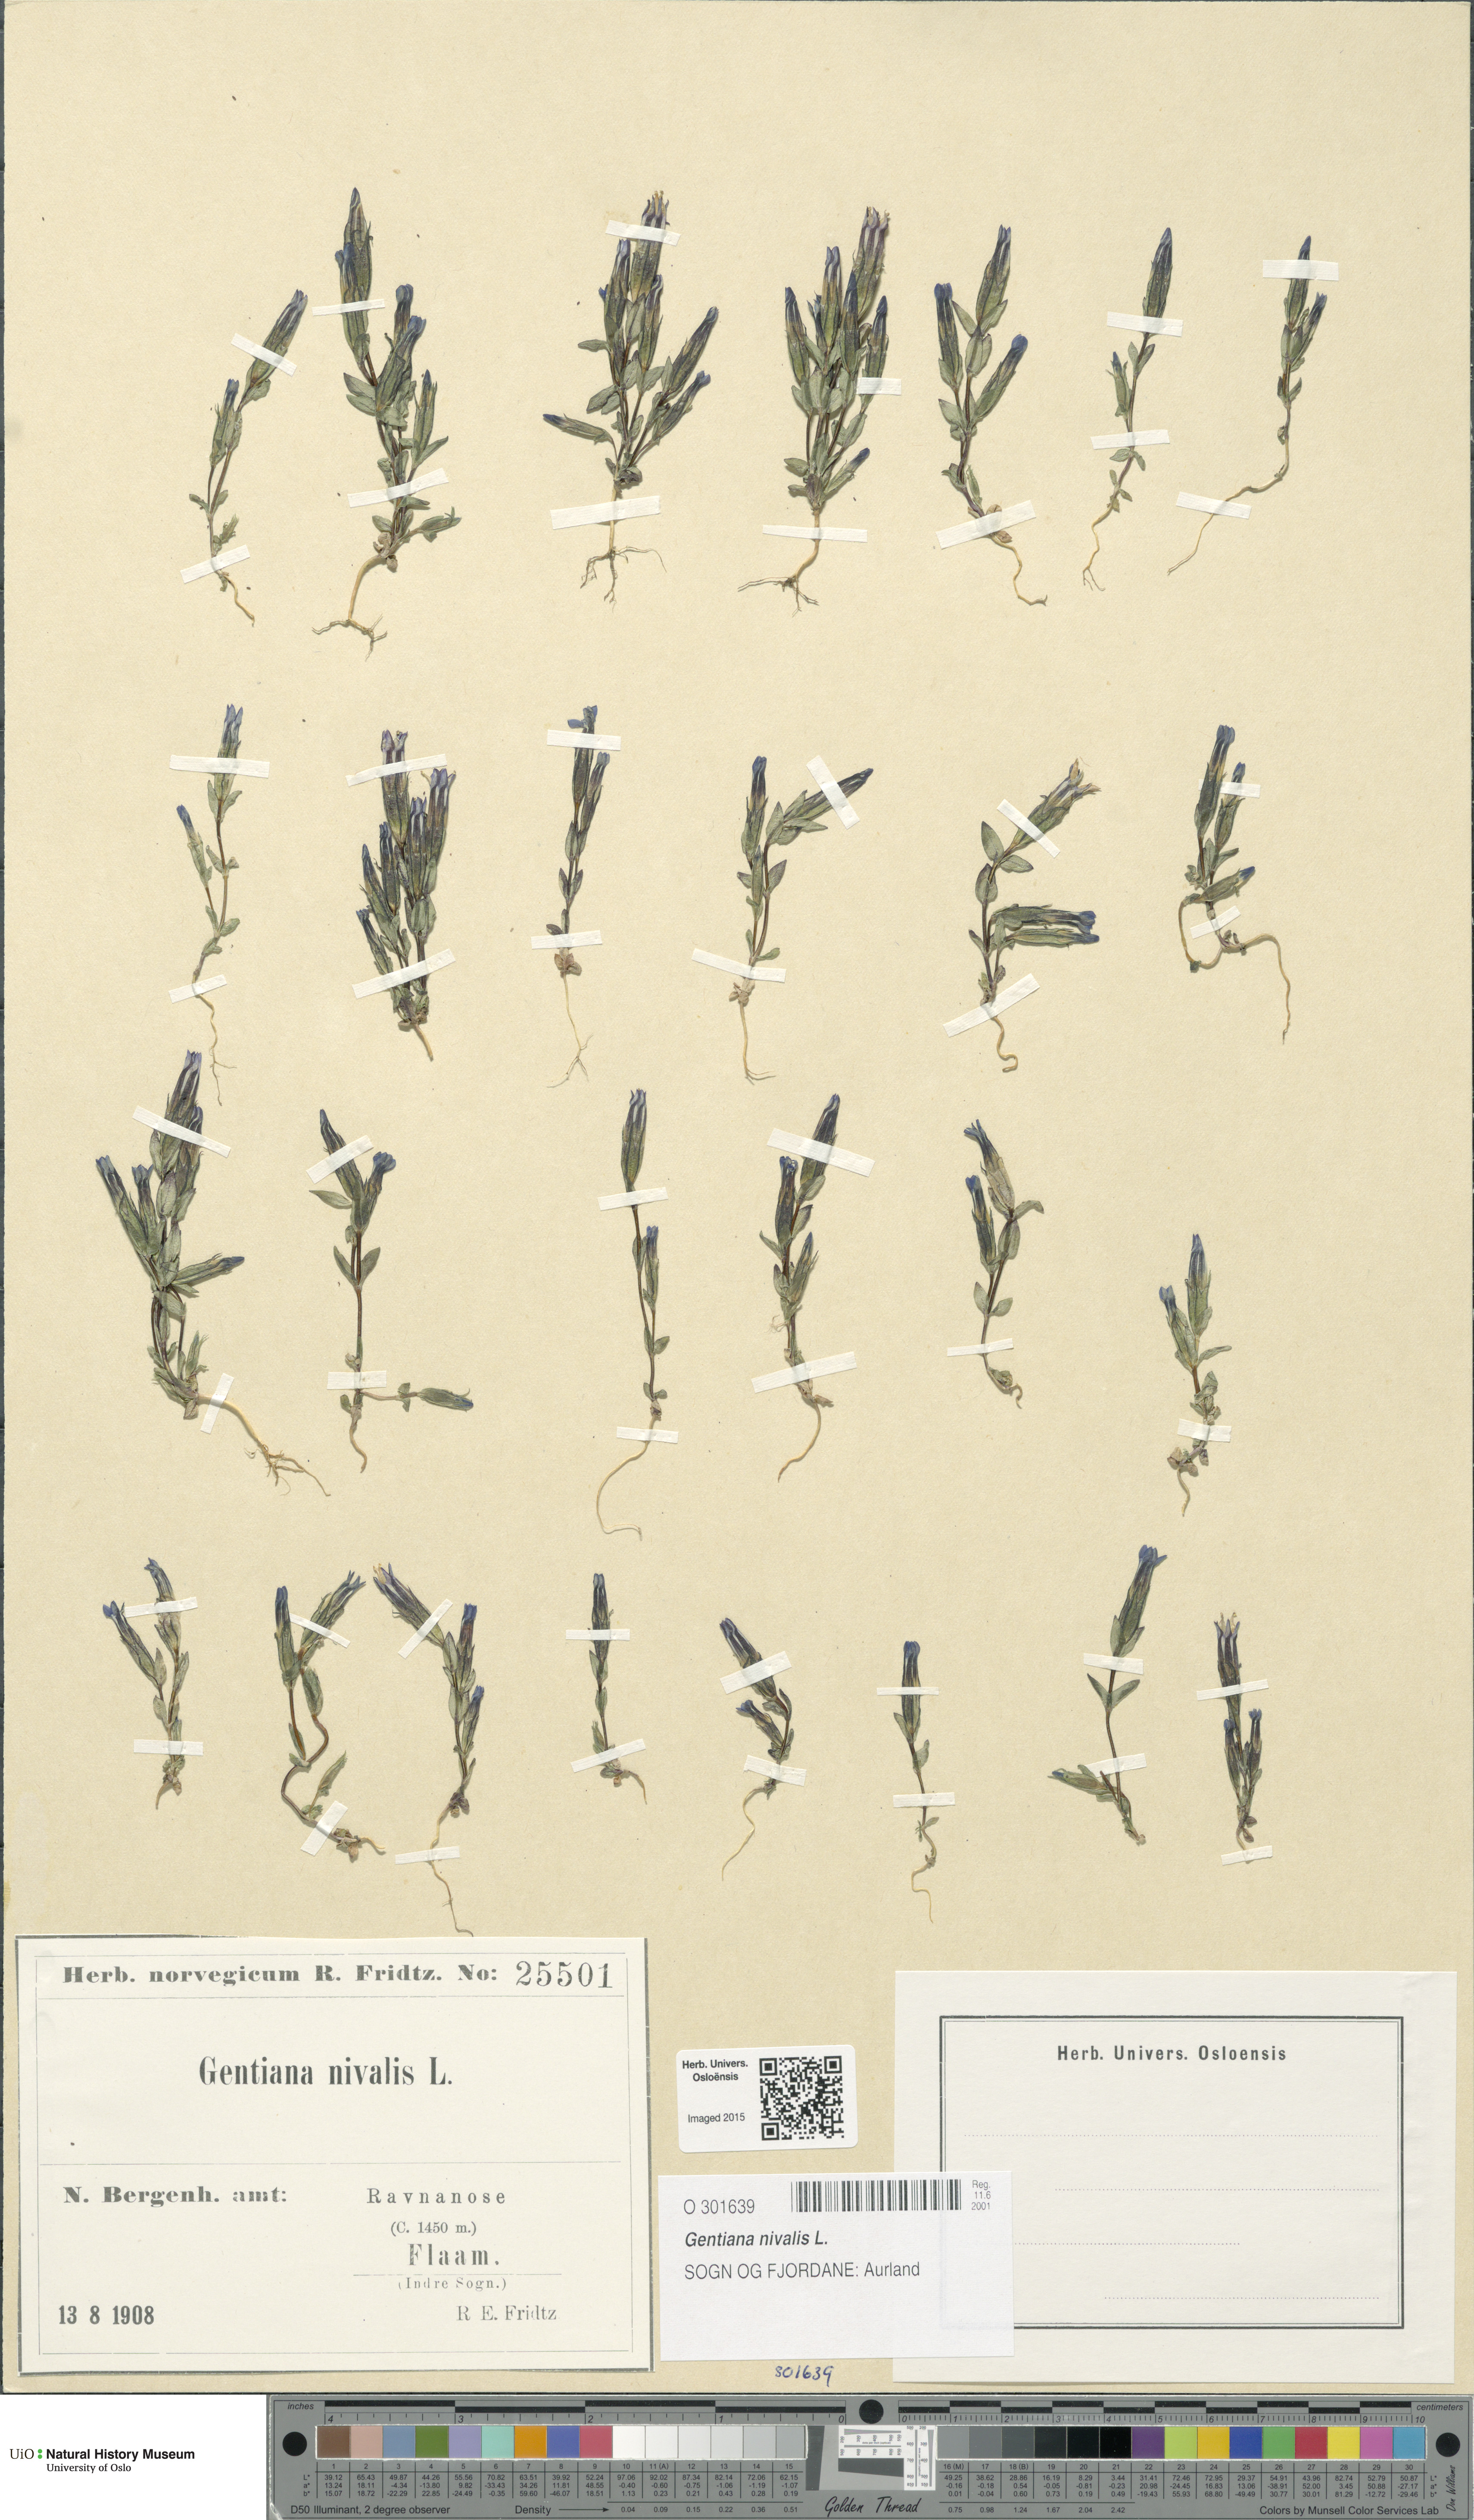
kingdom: Plantae
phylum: Tracheophyta
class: Magnoliopsida
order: Gentianales
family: Gentianaceae
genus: Gentiana
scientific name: Gentiana nivalis
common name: Alpine gentian
